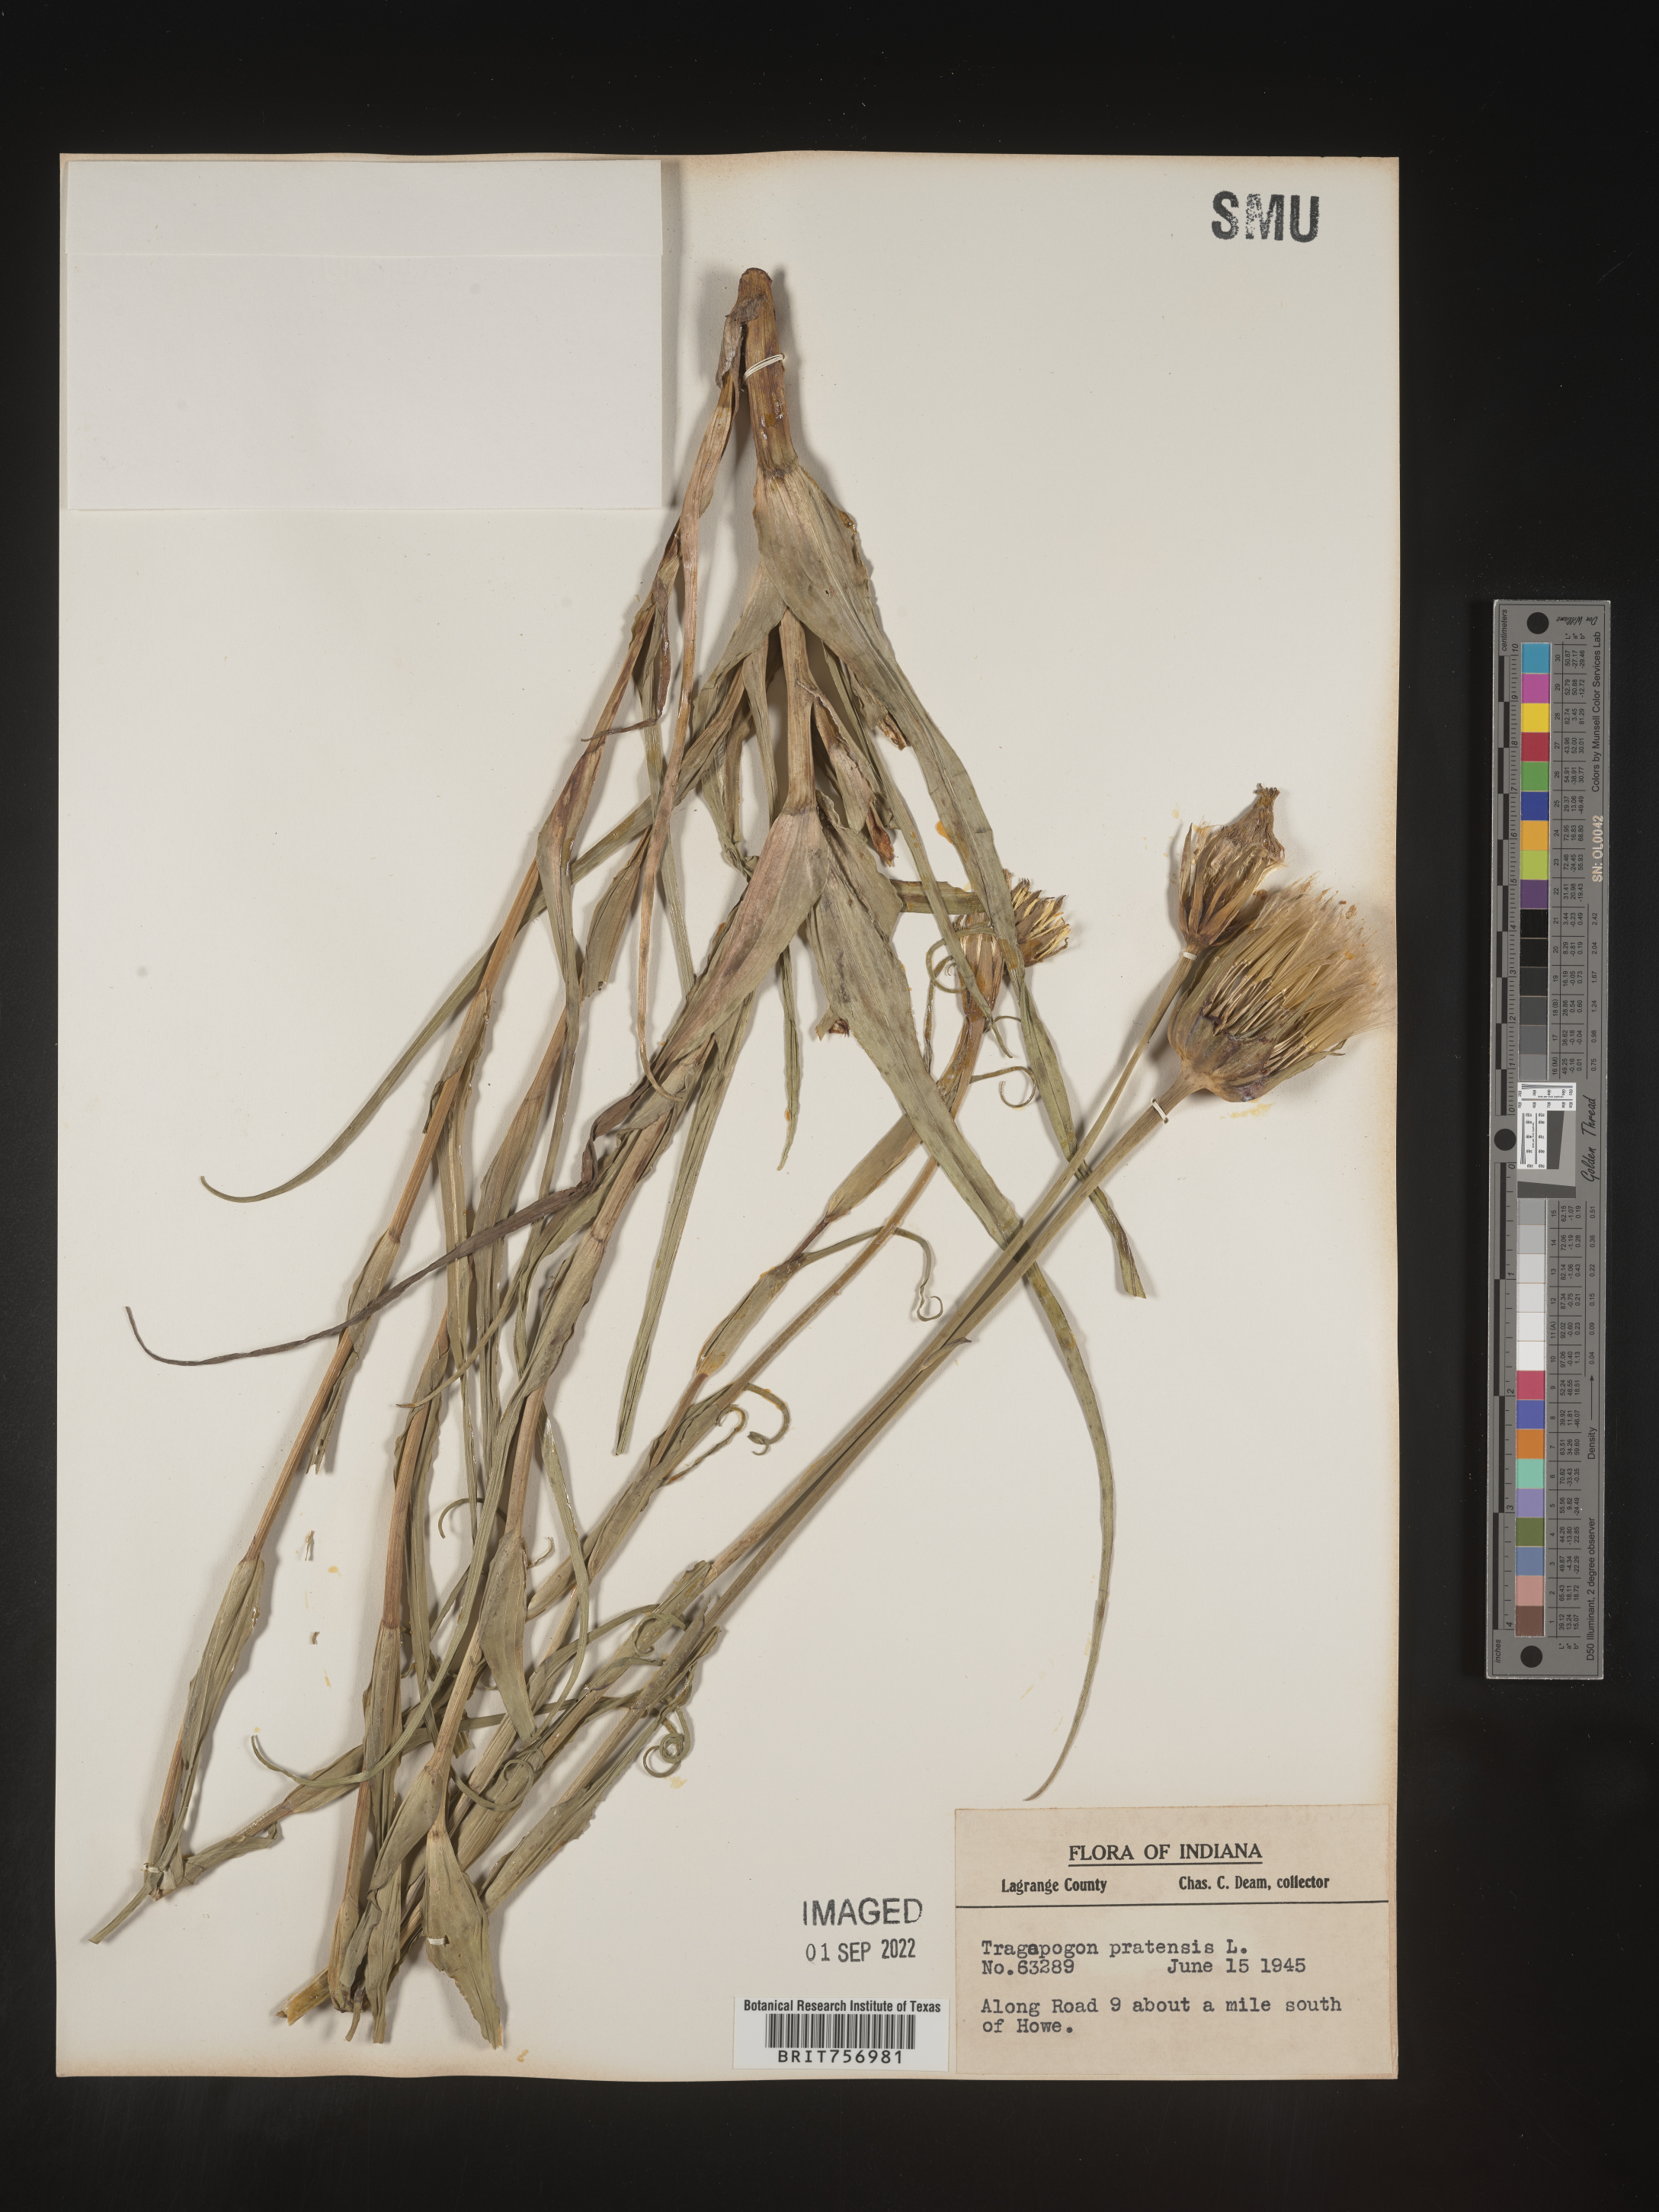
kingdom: Plantae
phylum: Tracheophyta
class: Magnoliopsida
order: Asterales
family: Asteraceae
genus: Tragopogon
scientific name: Tragopogon pratensis
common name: Goat's-beard
